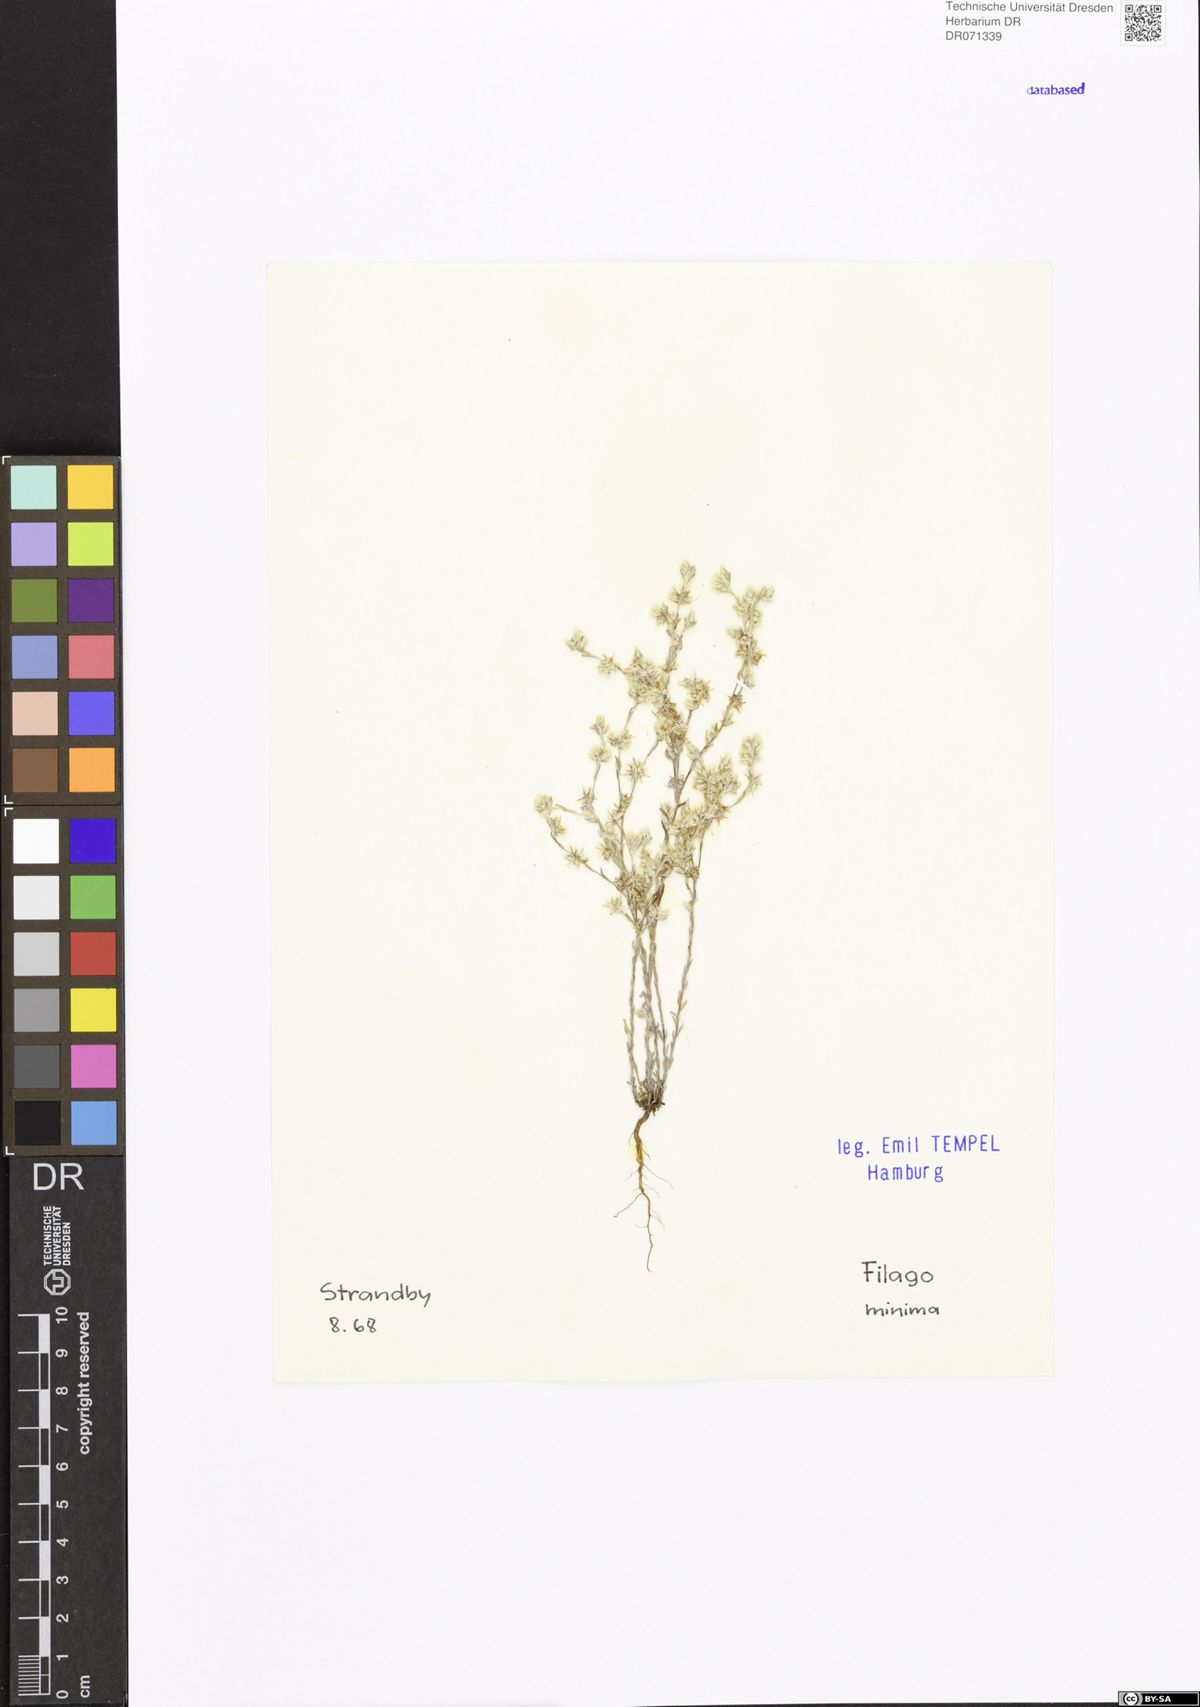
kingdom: Plantae
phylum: Tracheophyta
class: Magnoliopsida
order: Asterales
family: Asteraceae
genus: Logfia
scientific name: Logfia minima
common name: Little cottonrose
